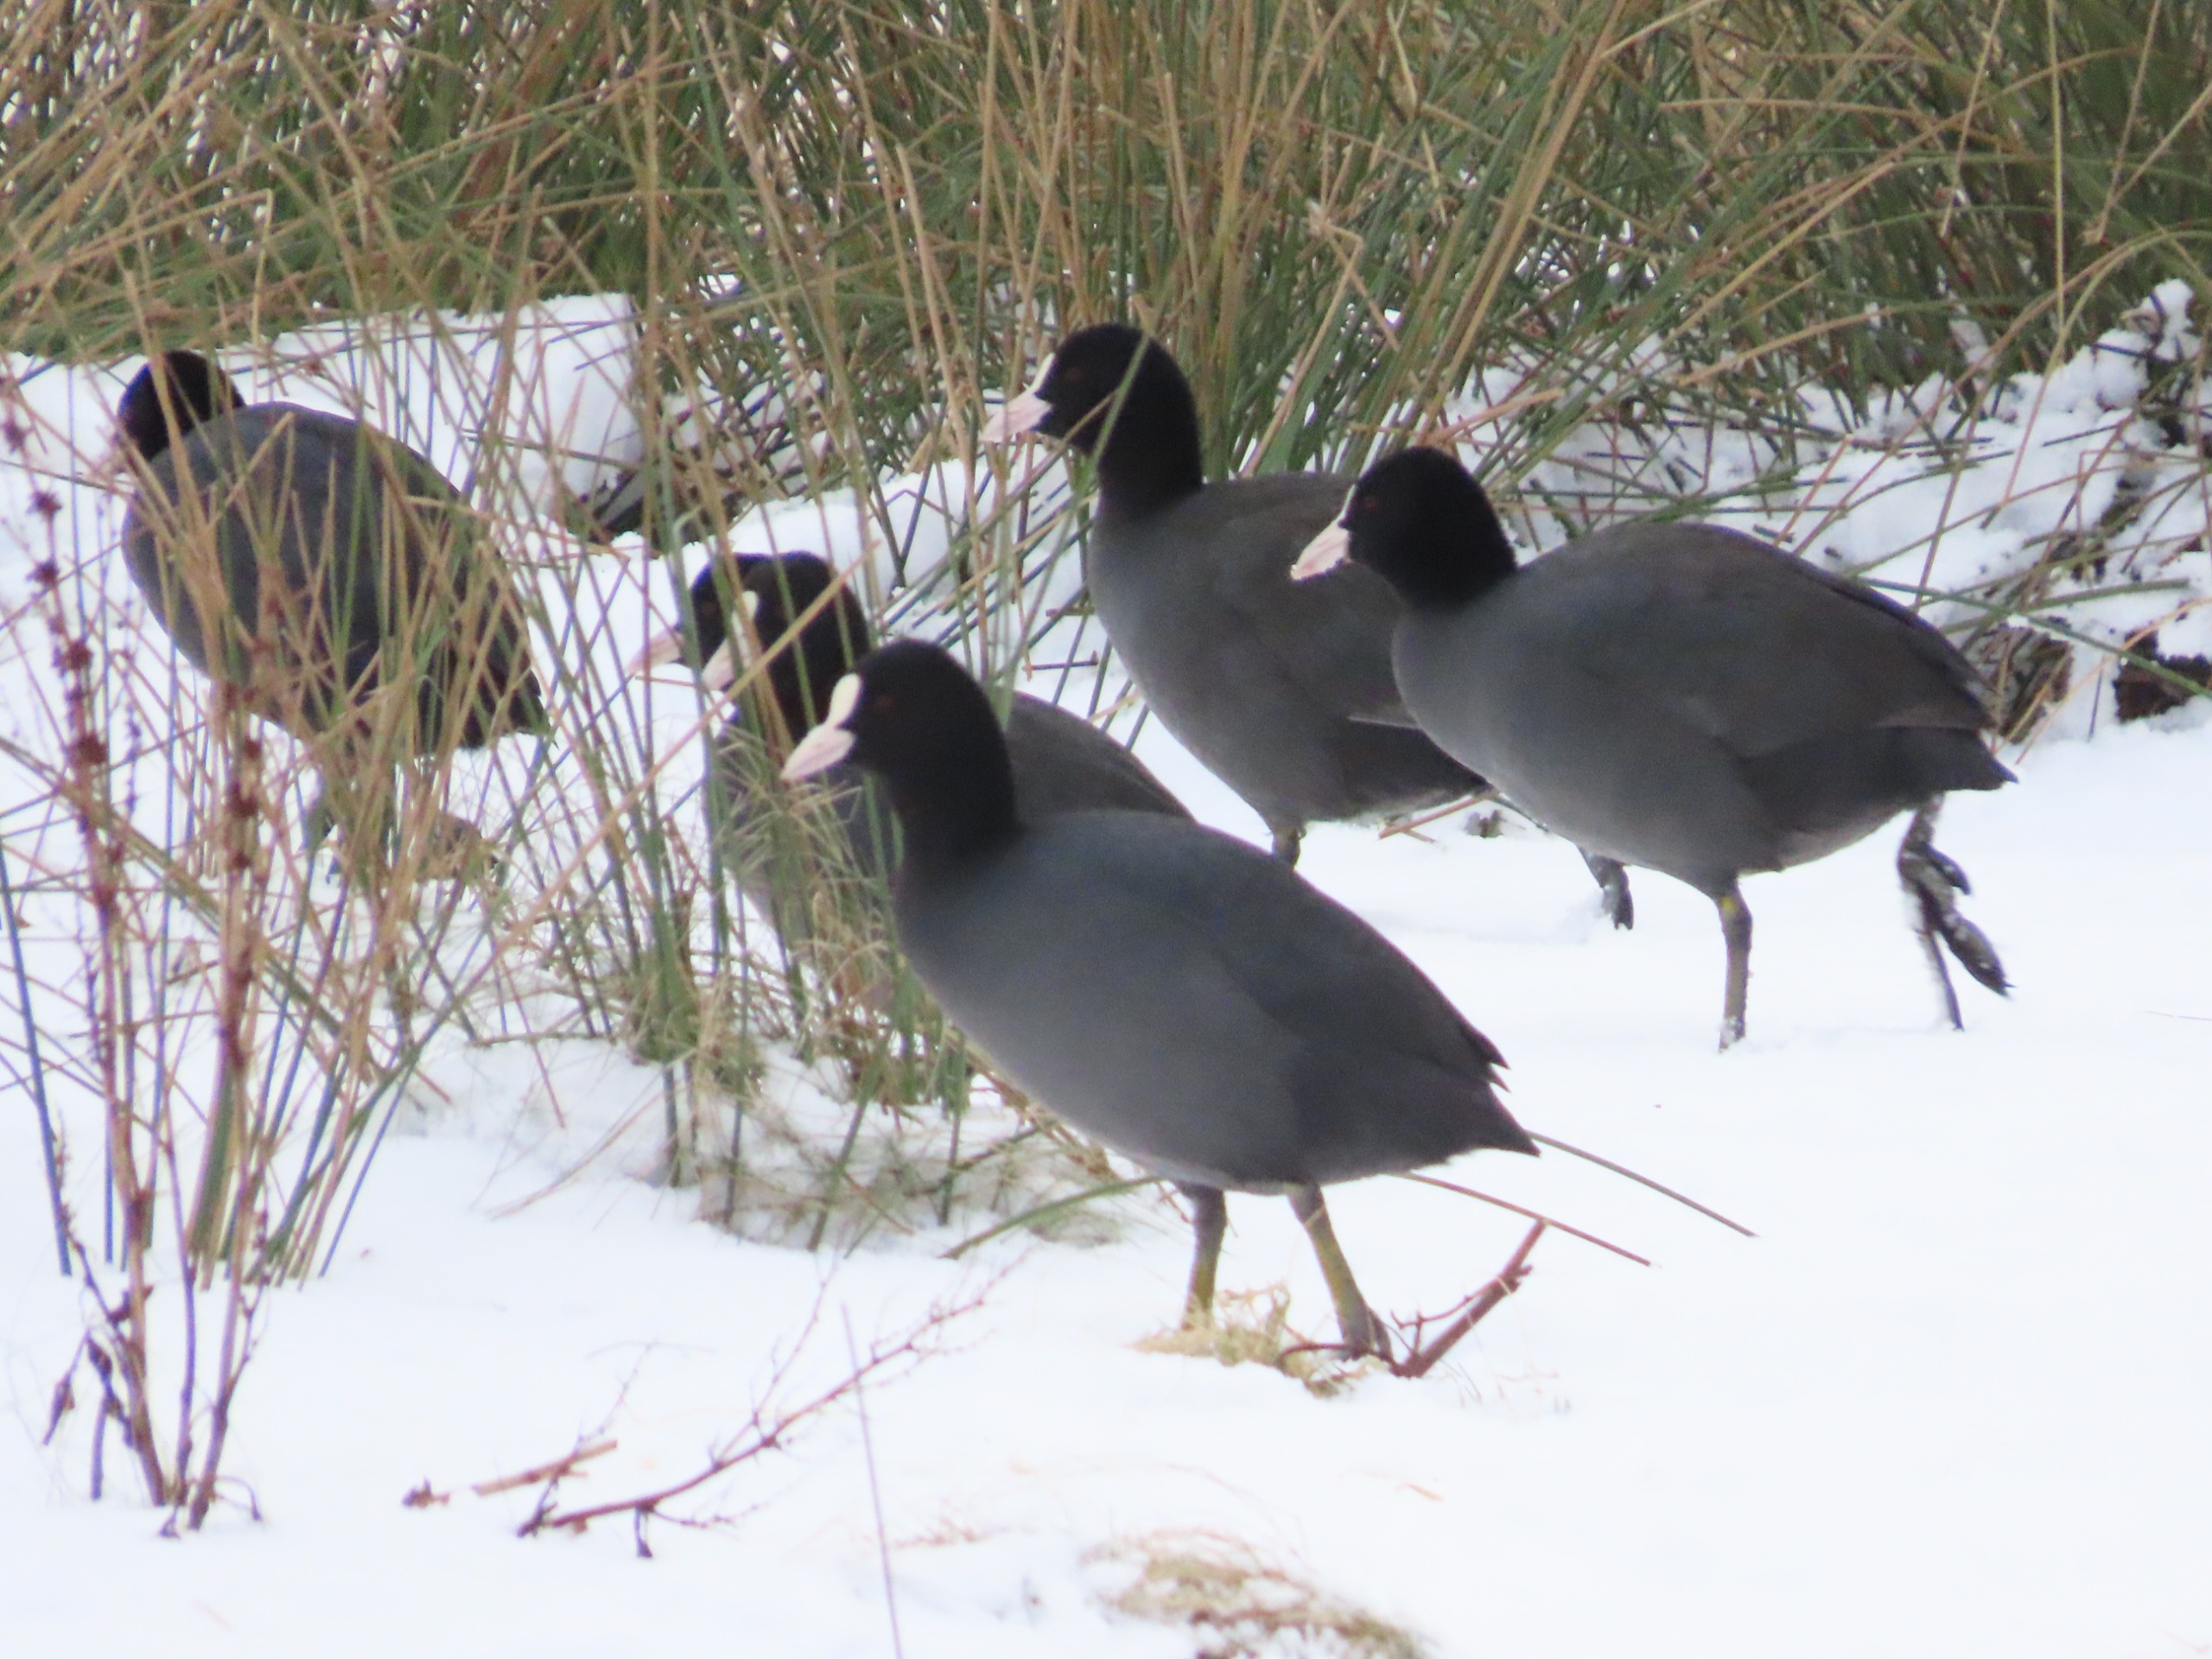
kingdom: Animalia
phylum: Chordata
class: Aves
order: Gruiformes
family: Rallidae
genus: Fulica
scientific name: Fulica atra
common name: Blishøne
